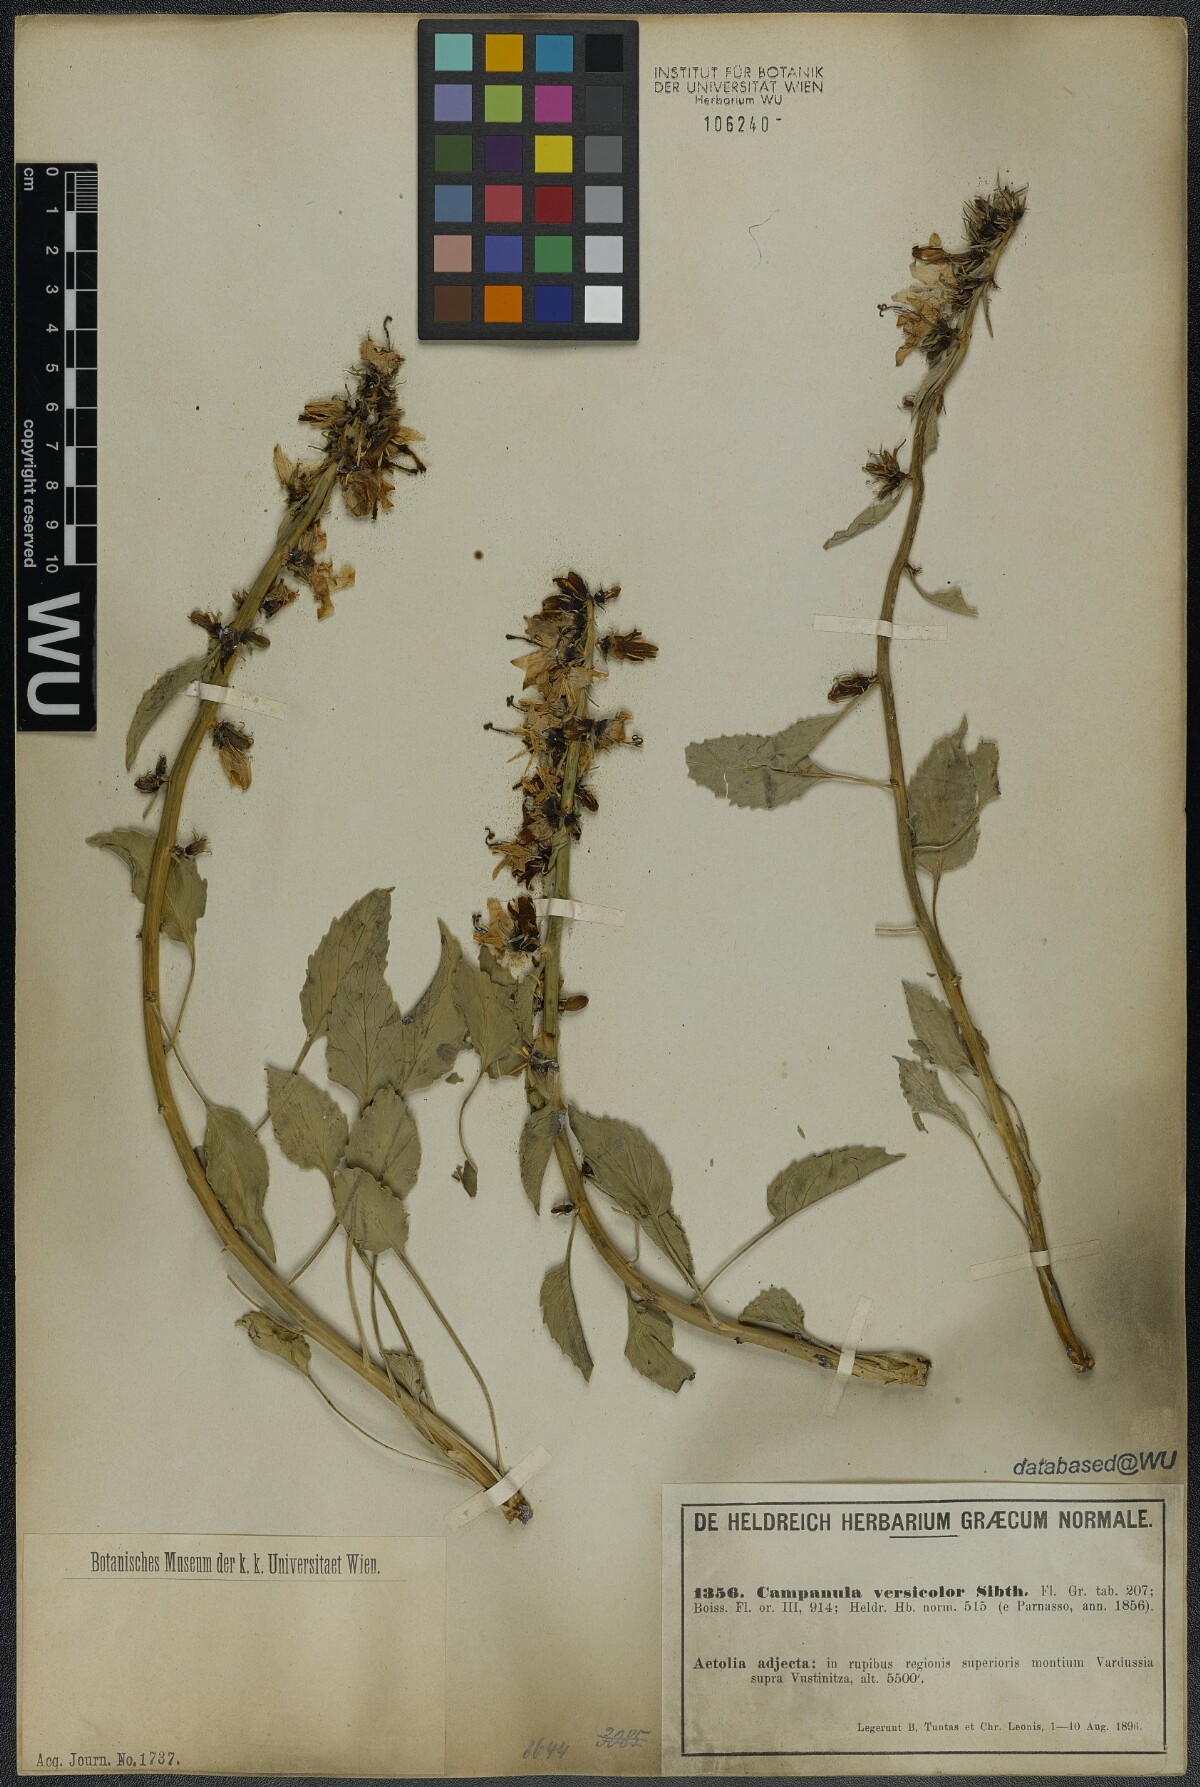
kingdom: Plantae
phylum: Tracheophyta
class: Magnoliopsida
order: Asterales
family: Campanulaceae
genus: Campanula
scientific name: Campanula versicolor
